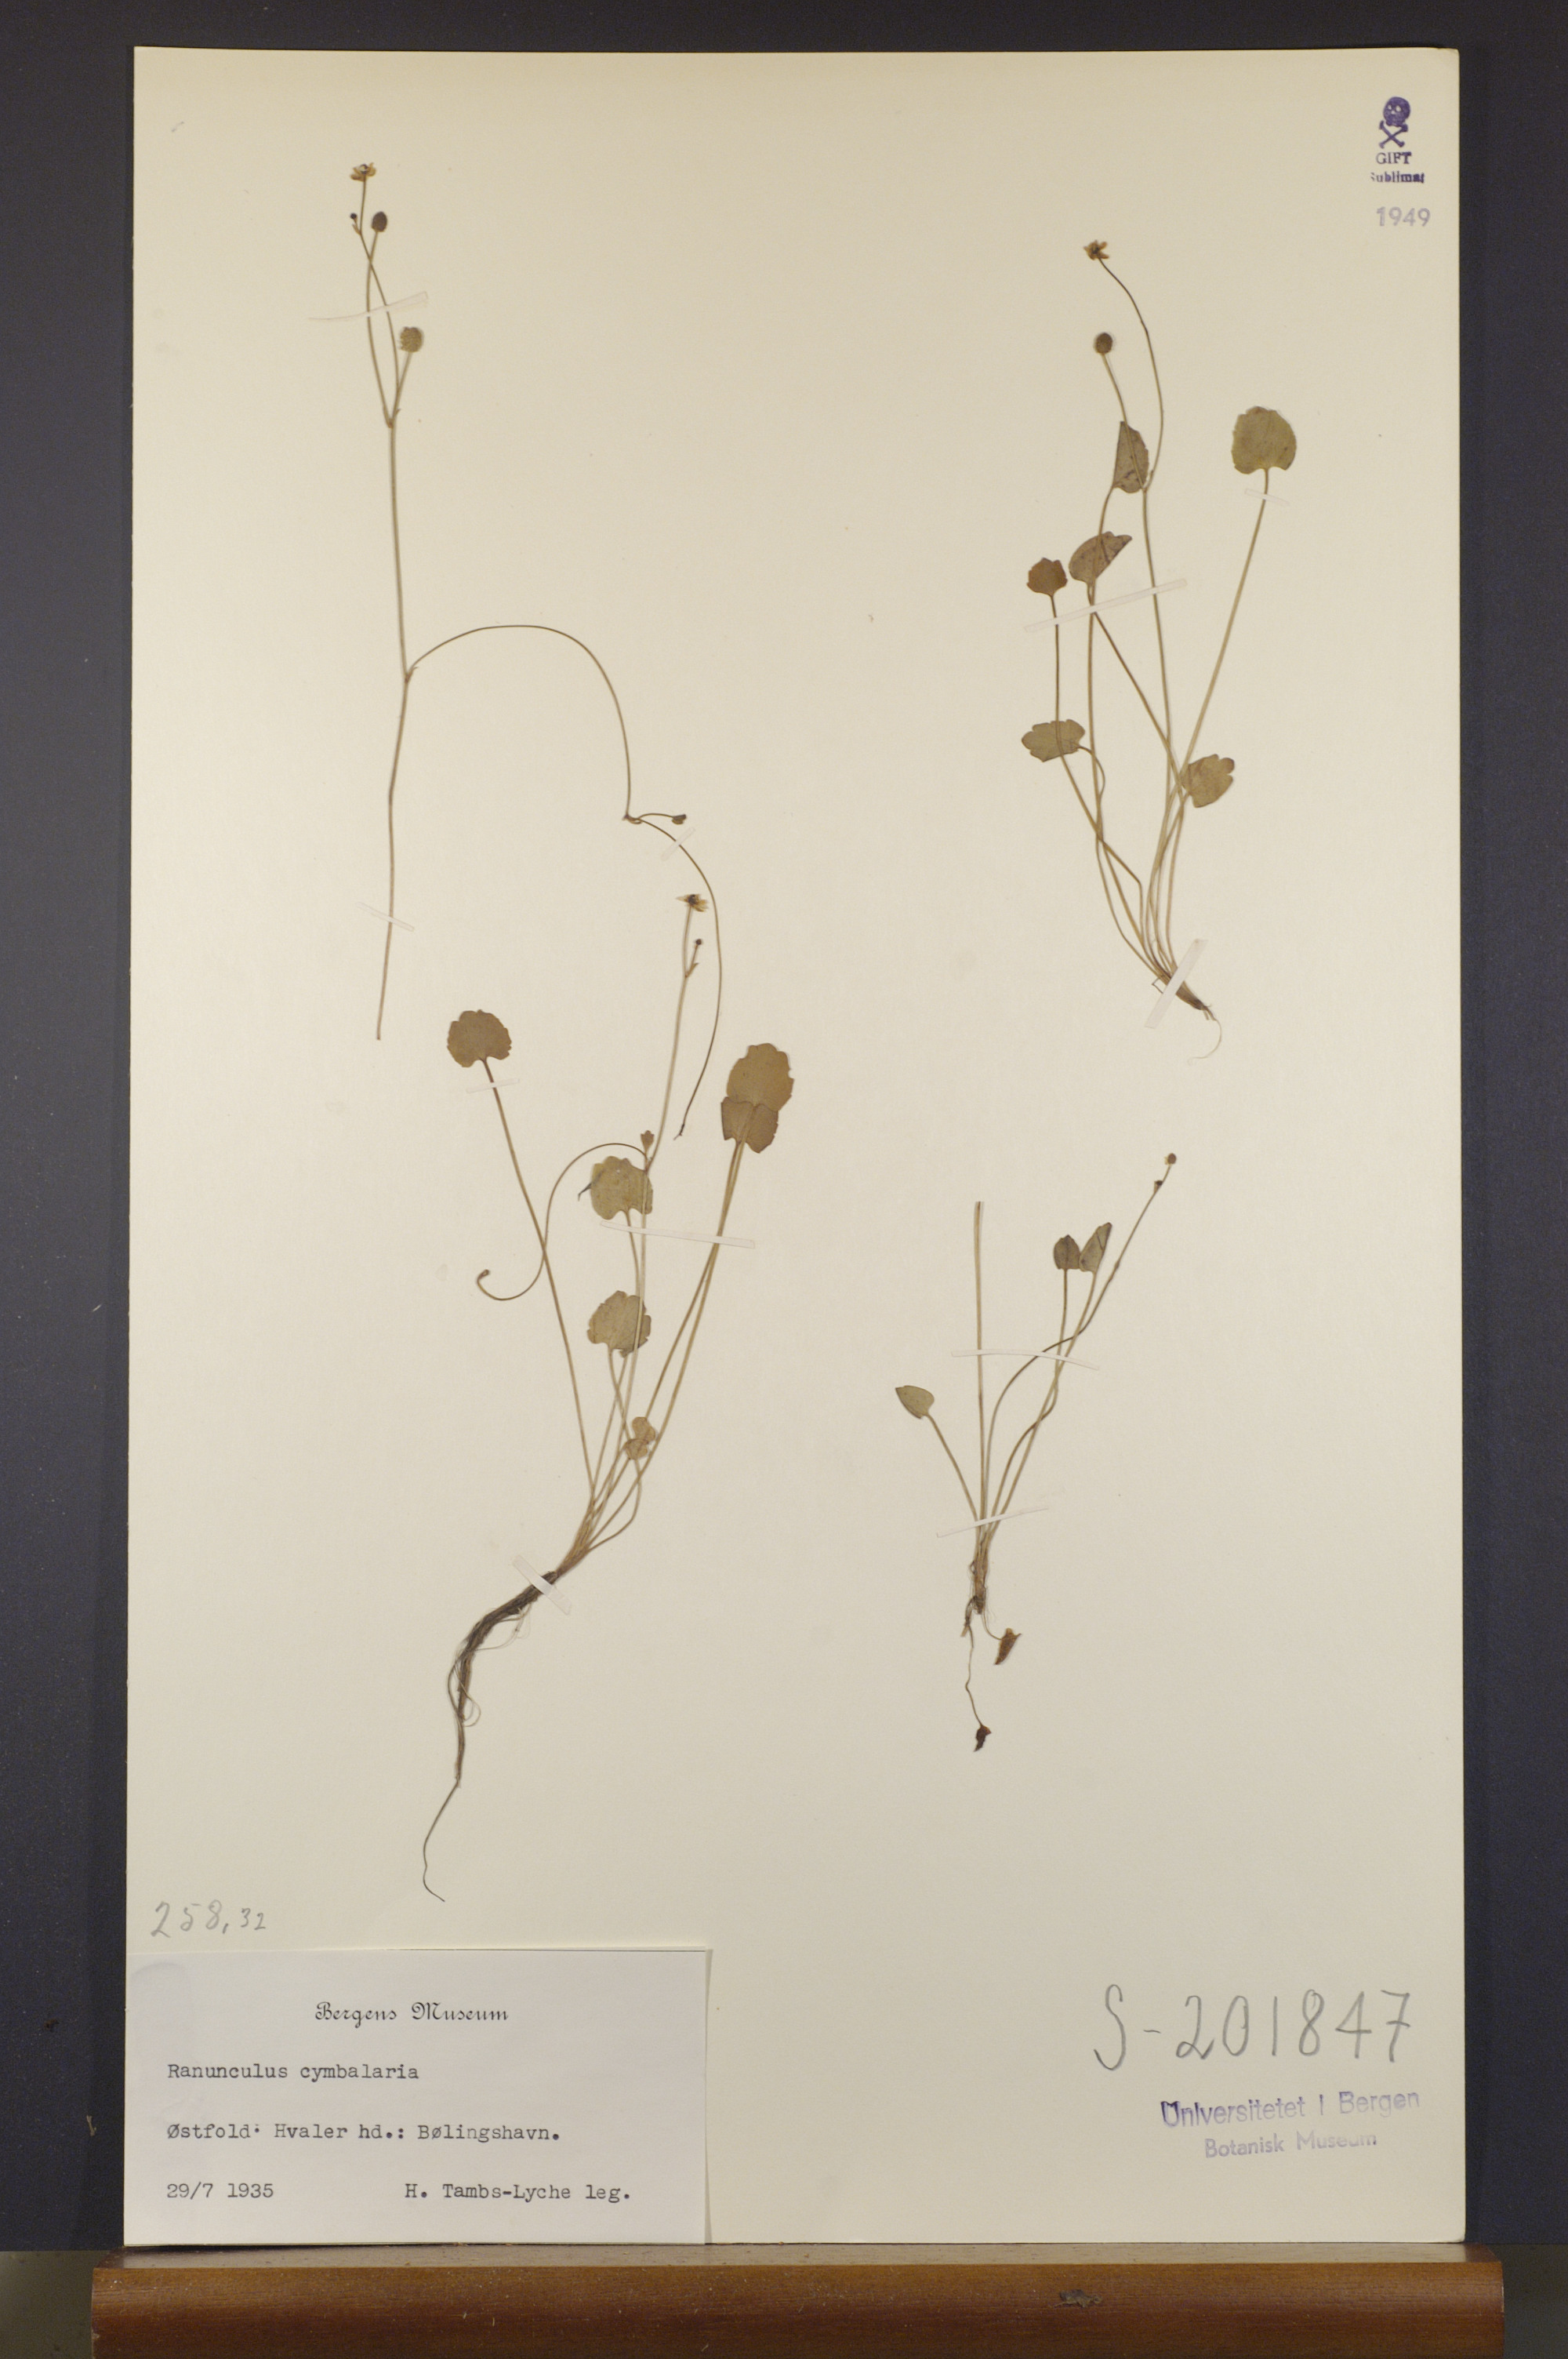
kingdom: Plantae
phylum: Tracheophyta
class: Magnoliopsida
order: Ranunculales
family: Ranunculaceae
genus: Halerpestes
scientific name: Halerpestes cymbalaria
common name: Seaside crowfoot
